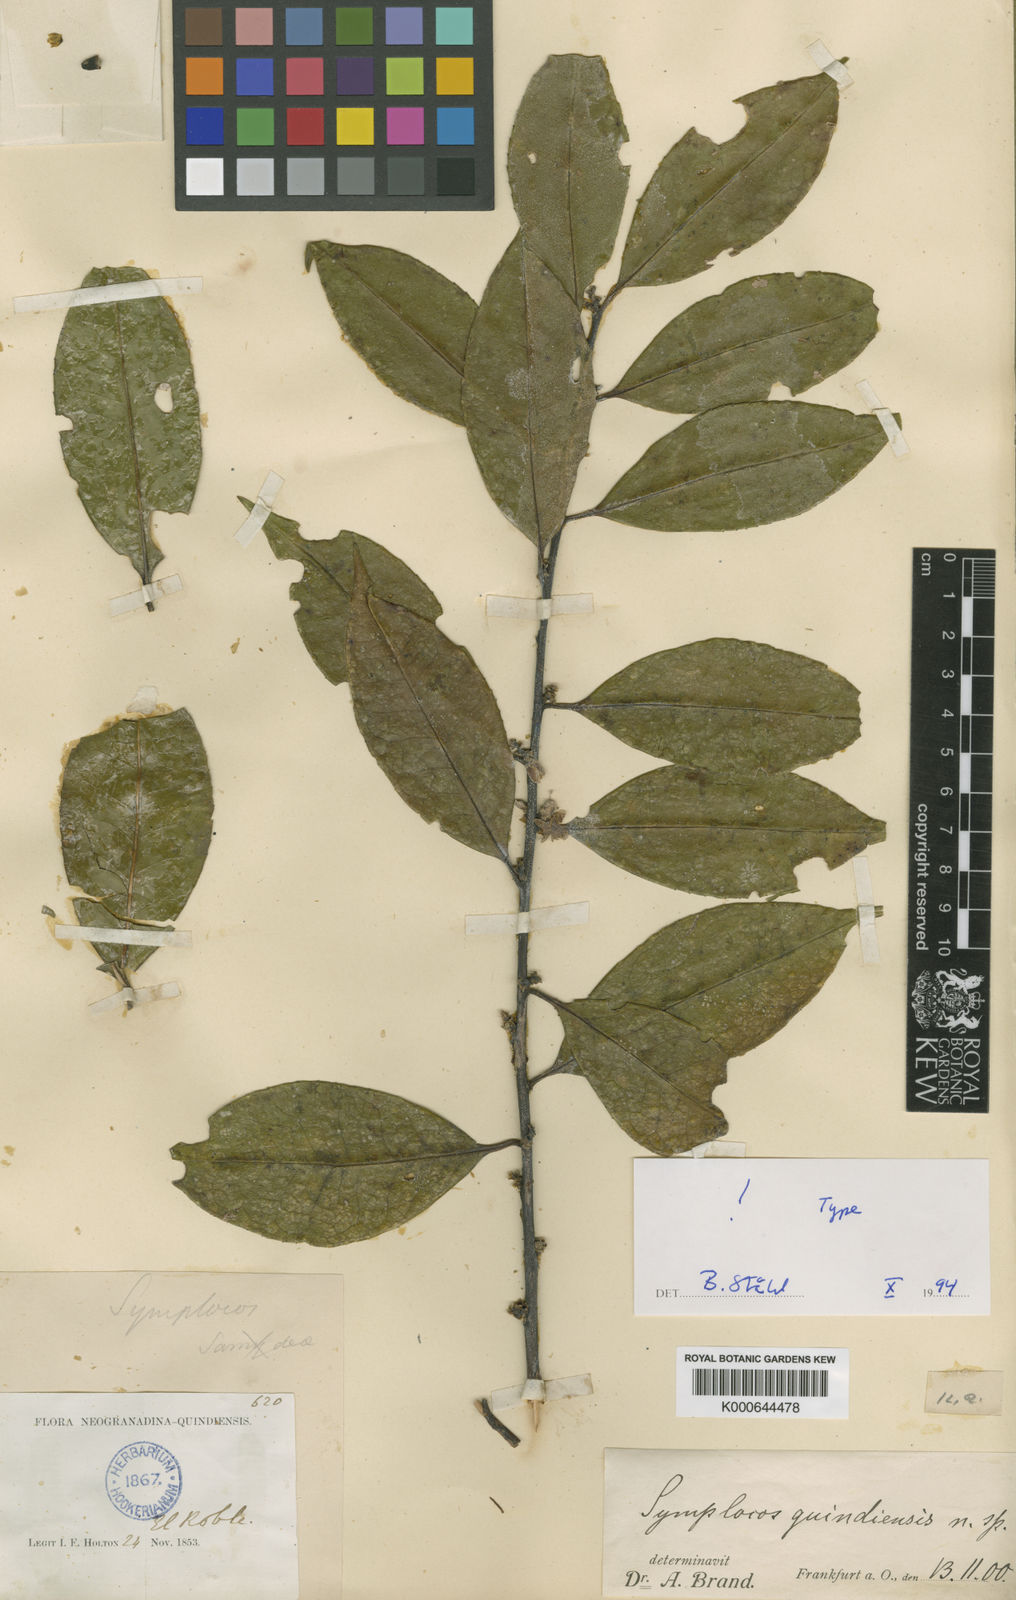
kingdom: Plantae
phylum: Tracheophyta
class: Magnoliopsida
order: Ericales
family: Symplocaceae
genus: Symplocos
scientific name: Symplocos quindiuensis
